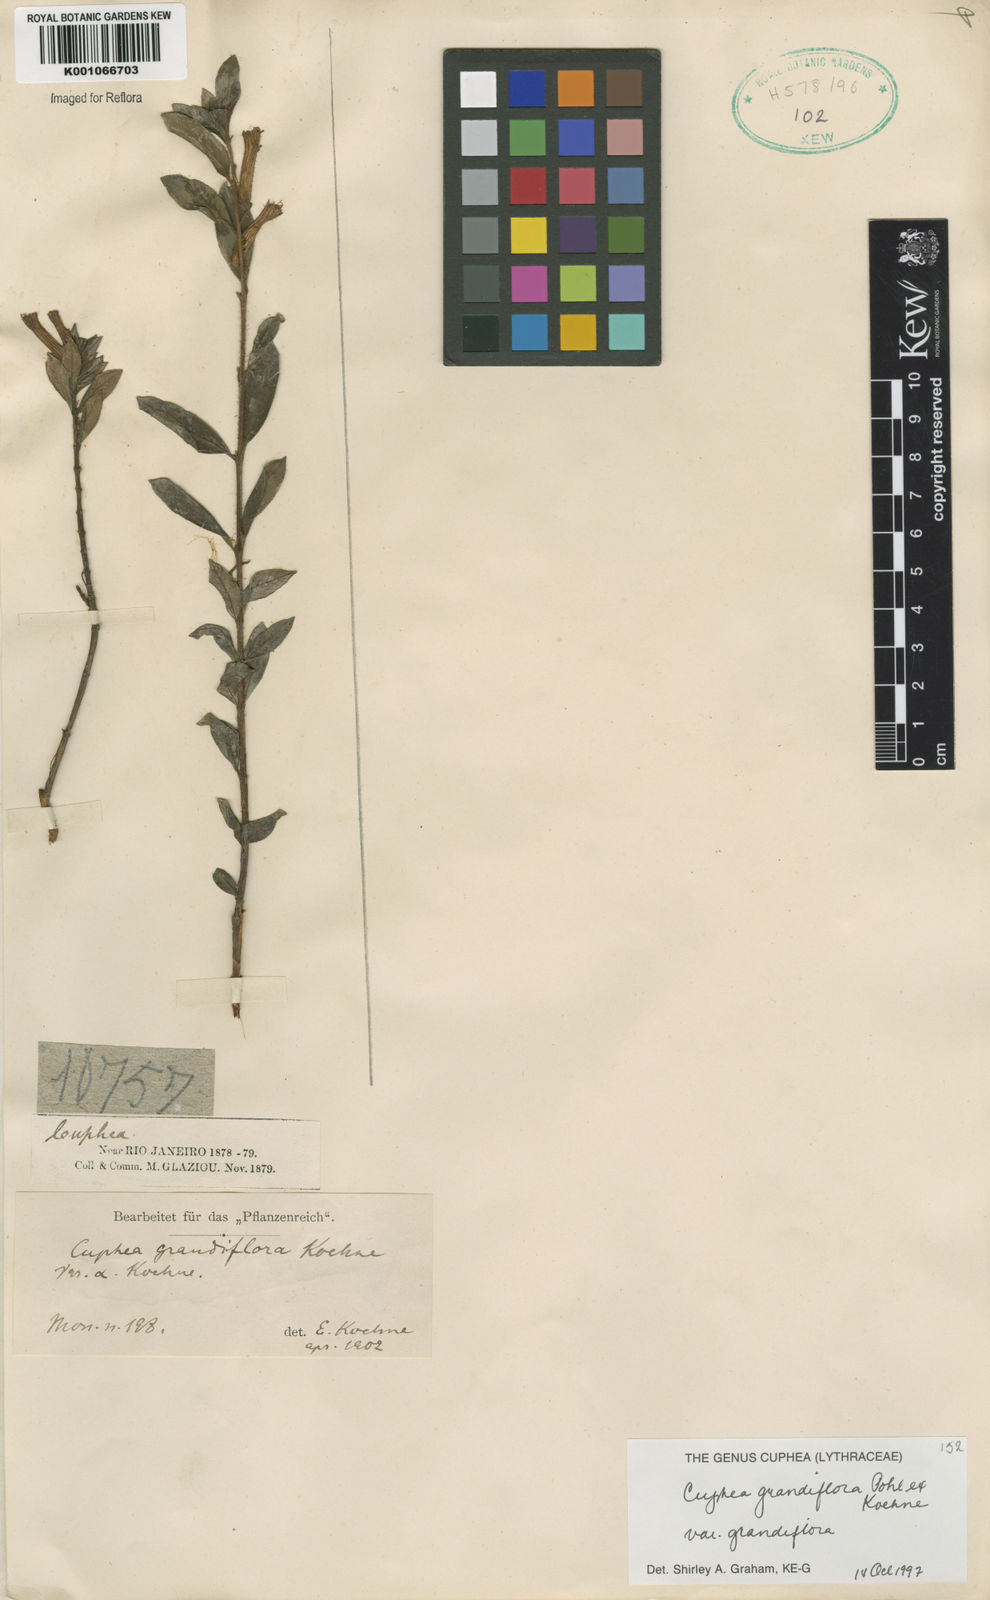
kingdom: Plantae
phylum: Tracheophyta
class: Magnoliopsida
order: Myrtales
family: Lythraceae
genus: Cuphea
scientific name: Cuphea grandiflora
